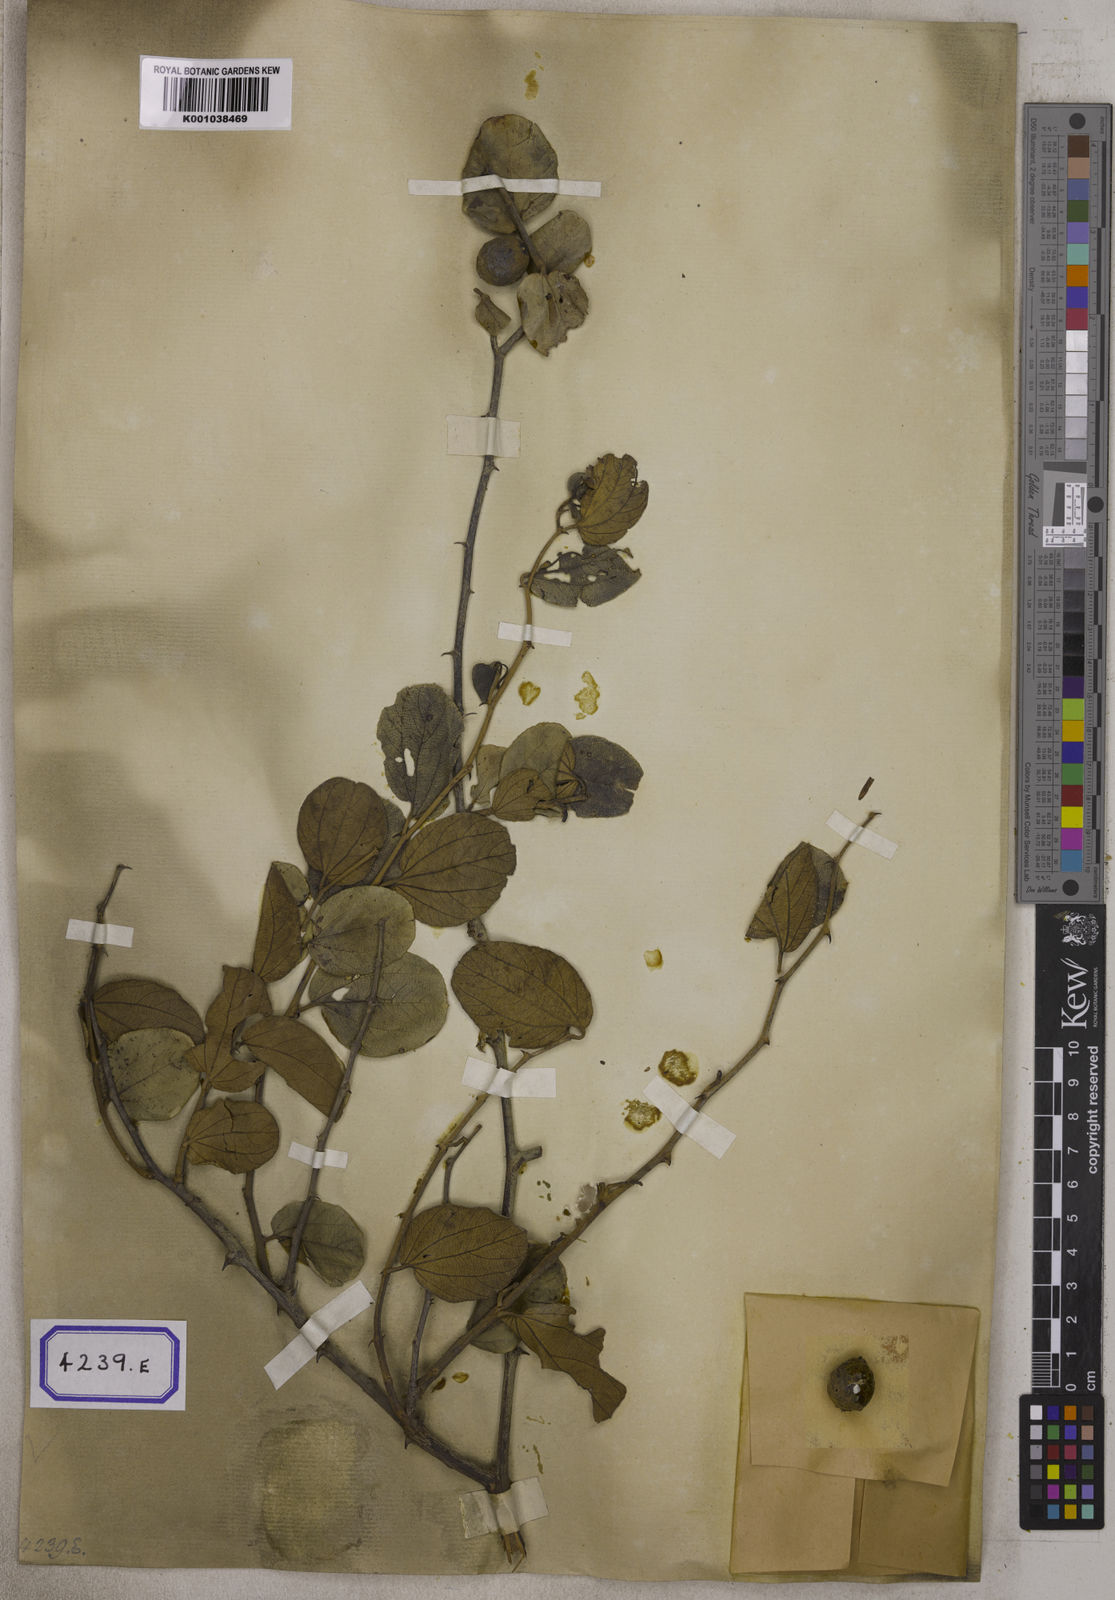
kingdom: Plantae
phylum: Tracheophyta
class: Magnoliopsida
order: Rosales
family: Rhamnaceae
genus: Ziziphus
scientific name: Ziziphus xylopyrus
